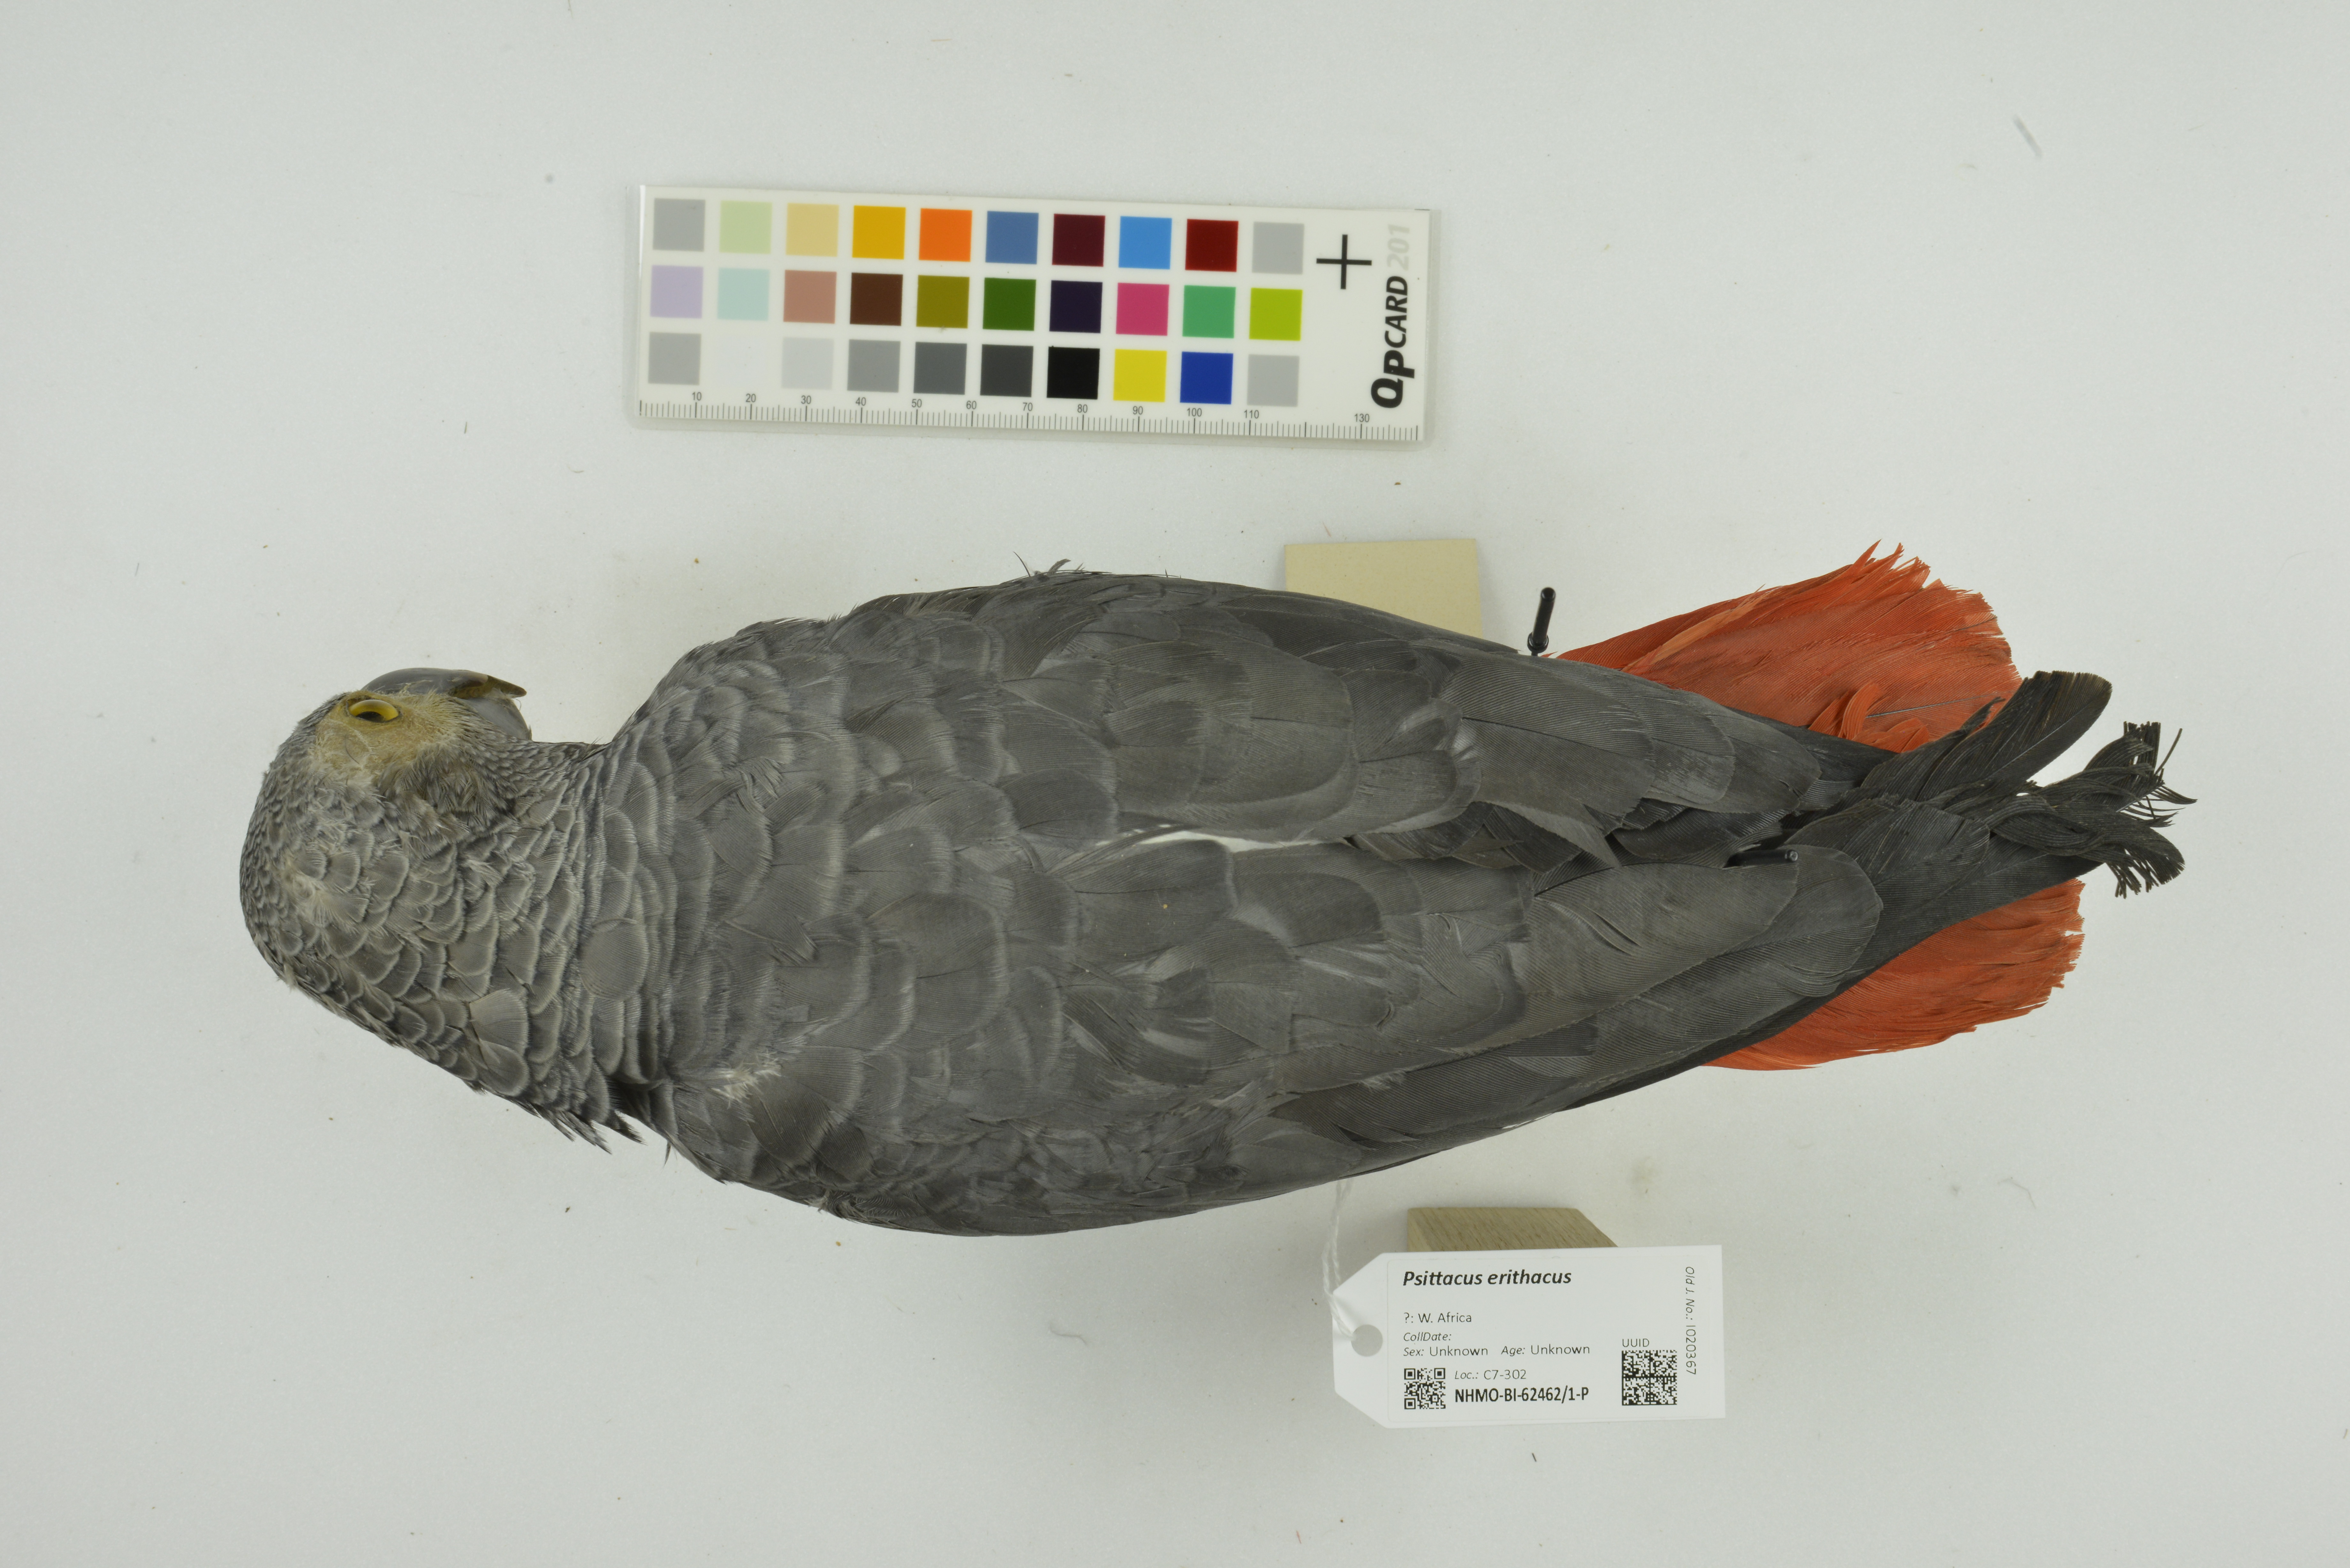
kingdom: Animalia
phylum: Chordata
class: Aves
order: Psittaciformes
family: Psittacidae
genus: Psittacus
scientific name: Psittacus erithacus
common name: Grey parrot
